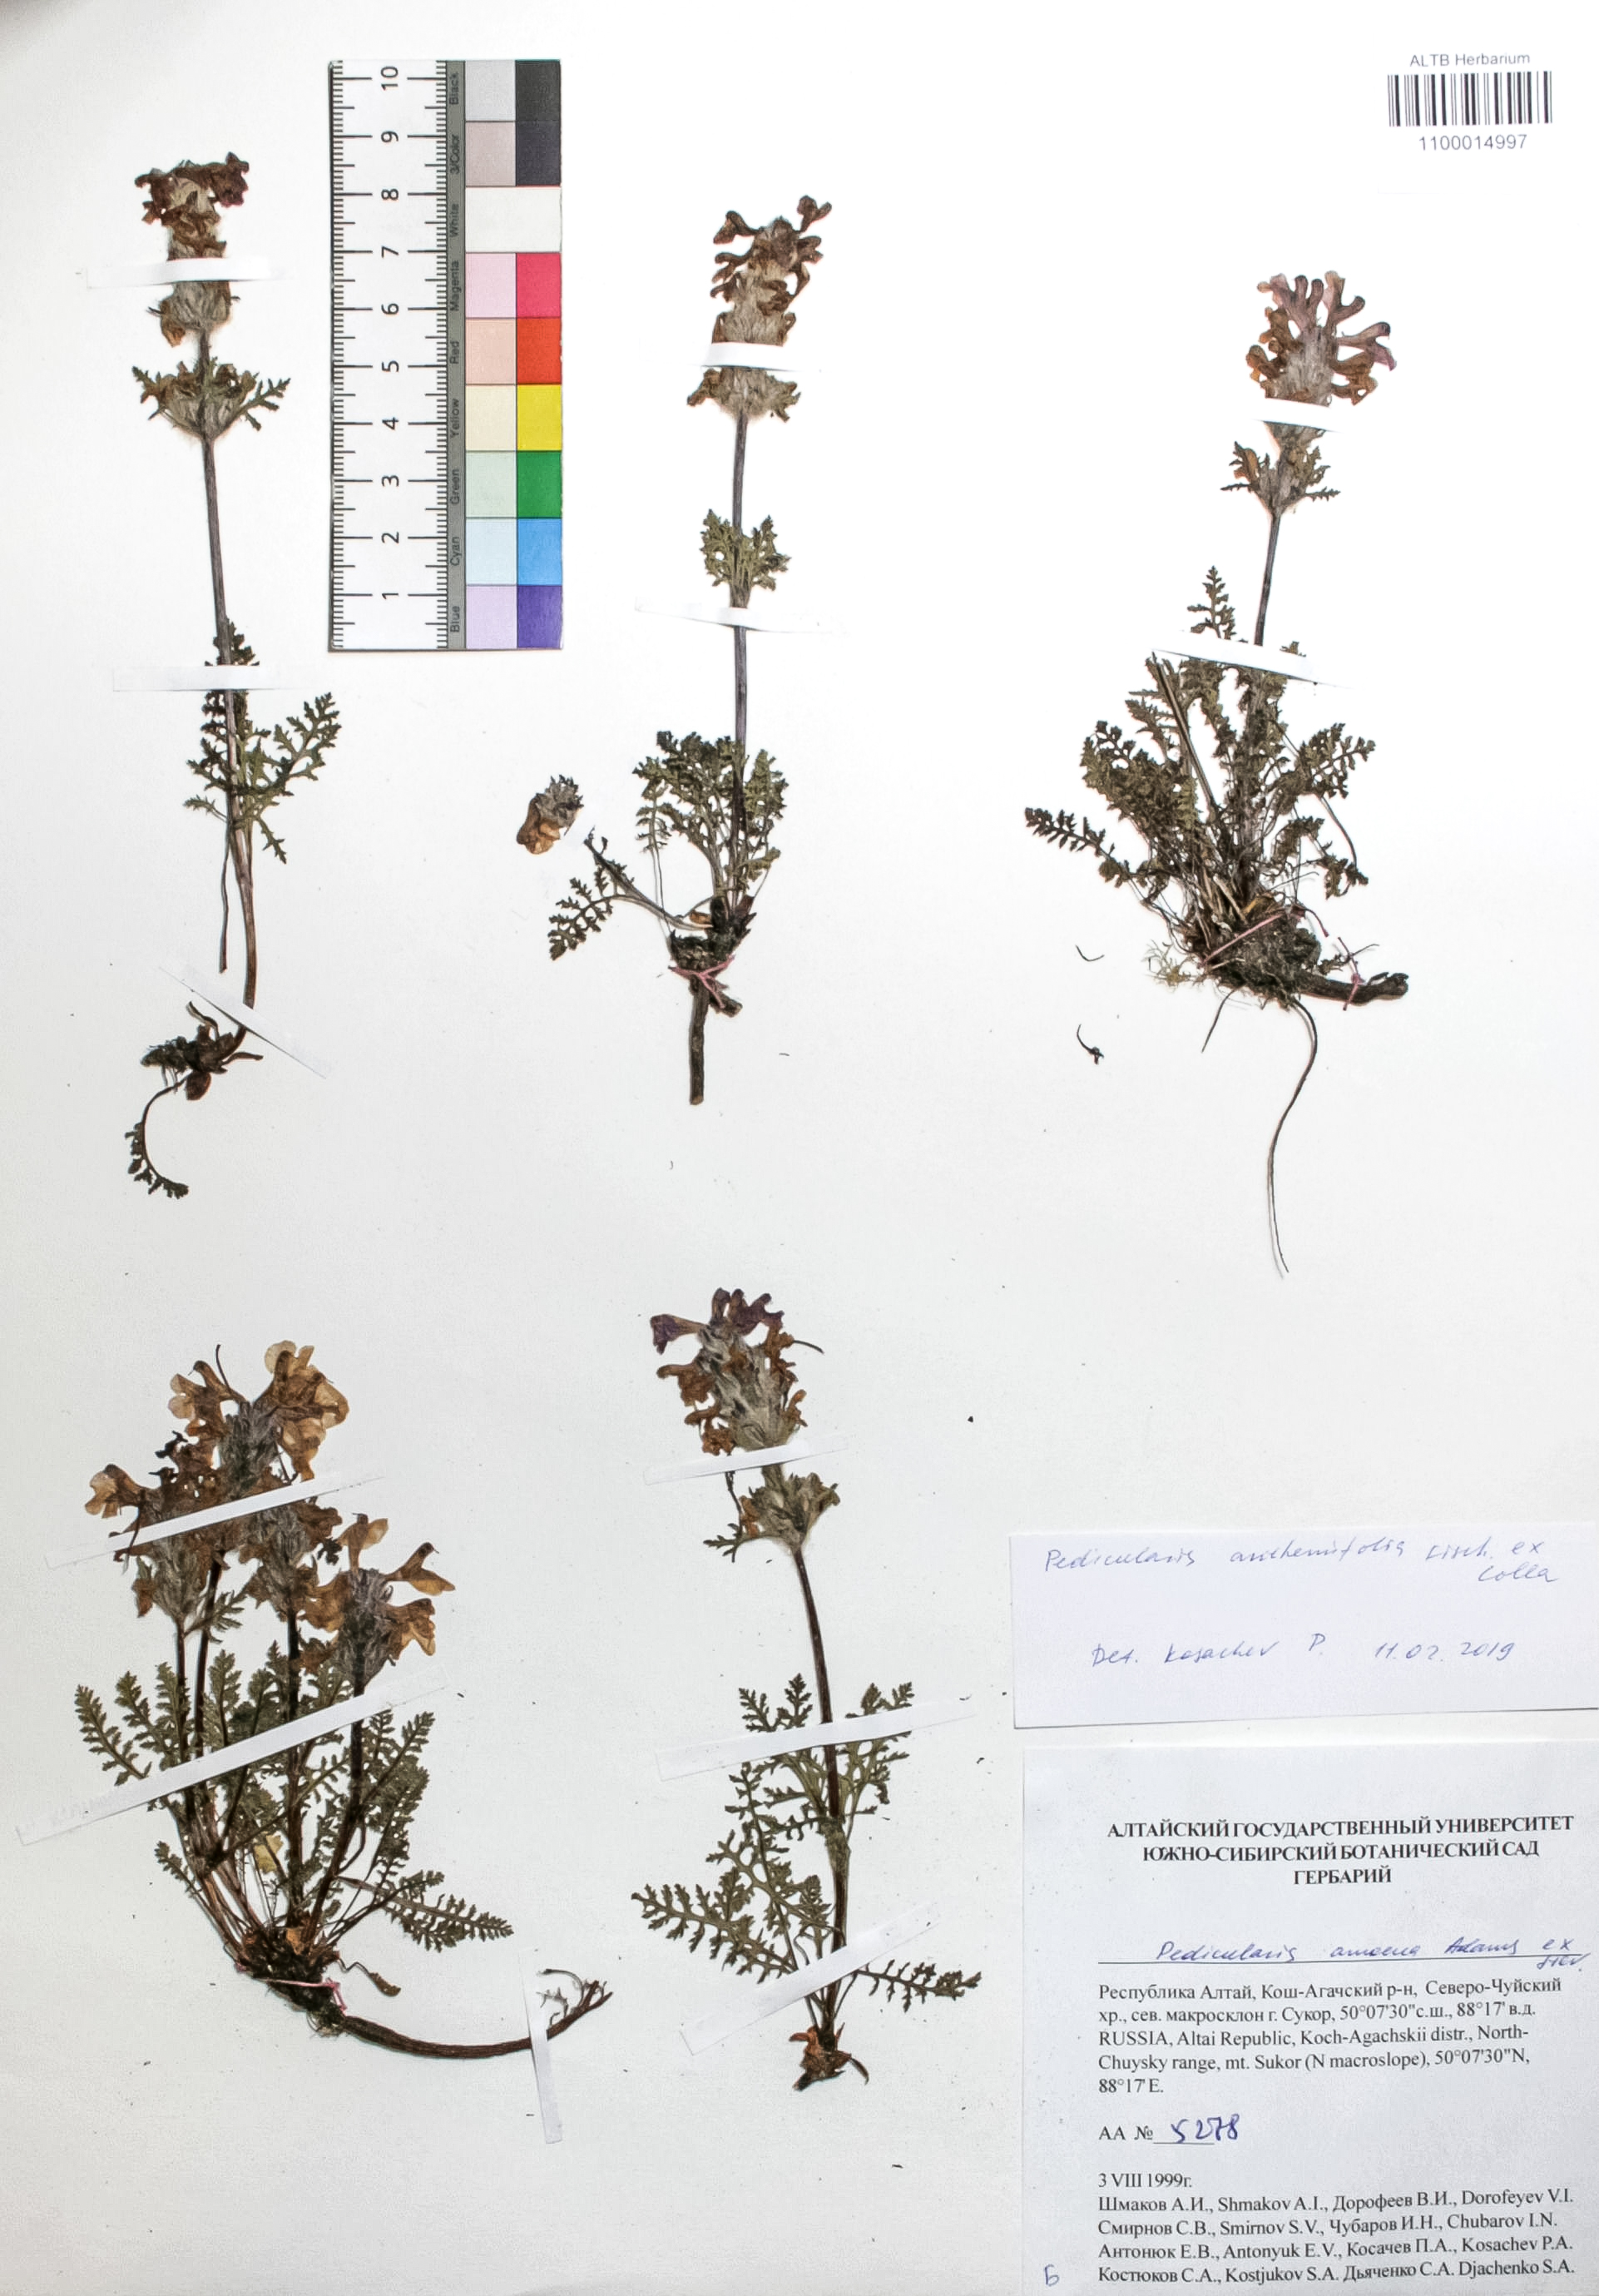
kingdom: Plantae
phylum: Tracheophyta
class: Magnoliopsida
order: Lamiales
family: Orobanchaceae
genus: Pedicularis
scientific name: Pedicularis anthemifolia
